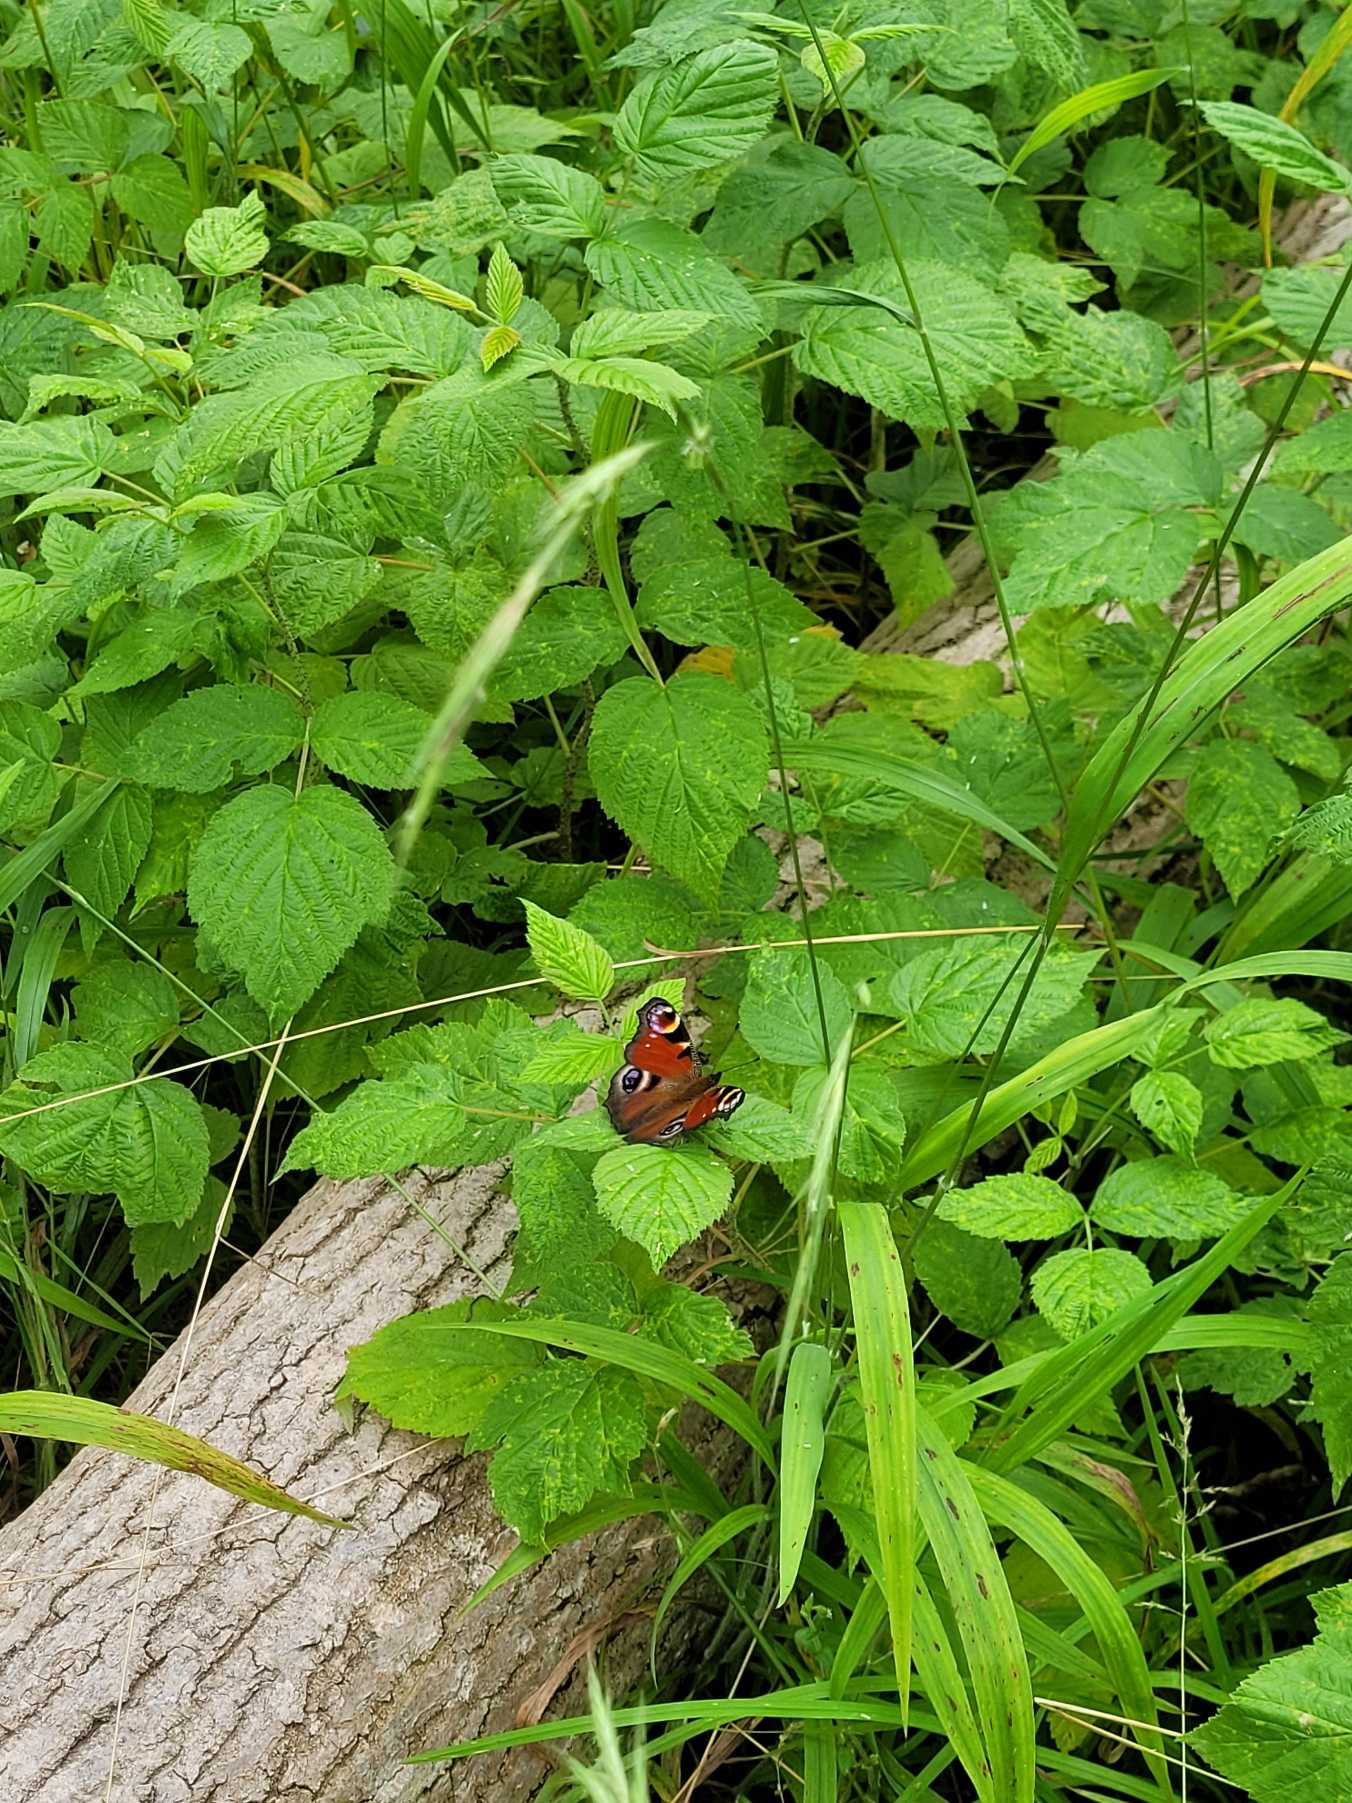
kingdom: Animalia
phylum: Arthropoda
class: Insecta
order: Lepidoptera
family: Nymphalidae
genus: Aglais
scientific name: Aglais io
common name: Dagpåfugleøje
